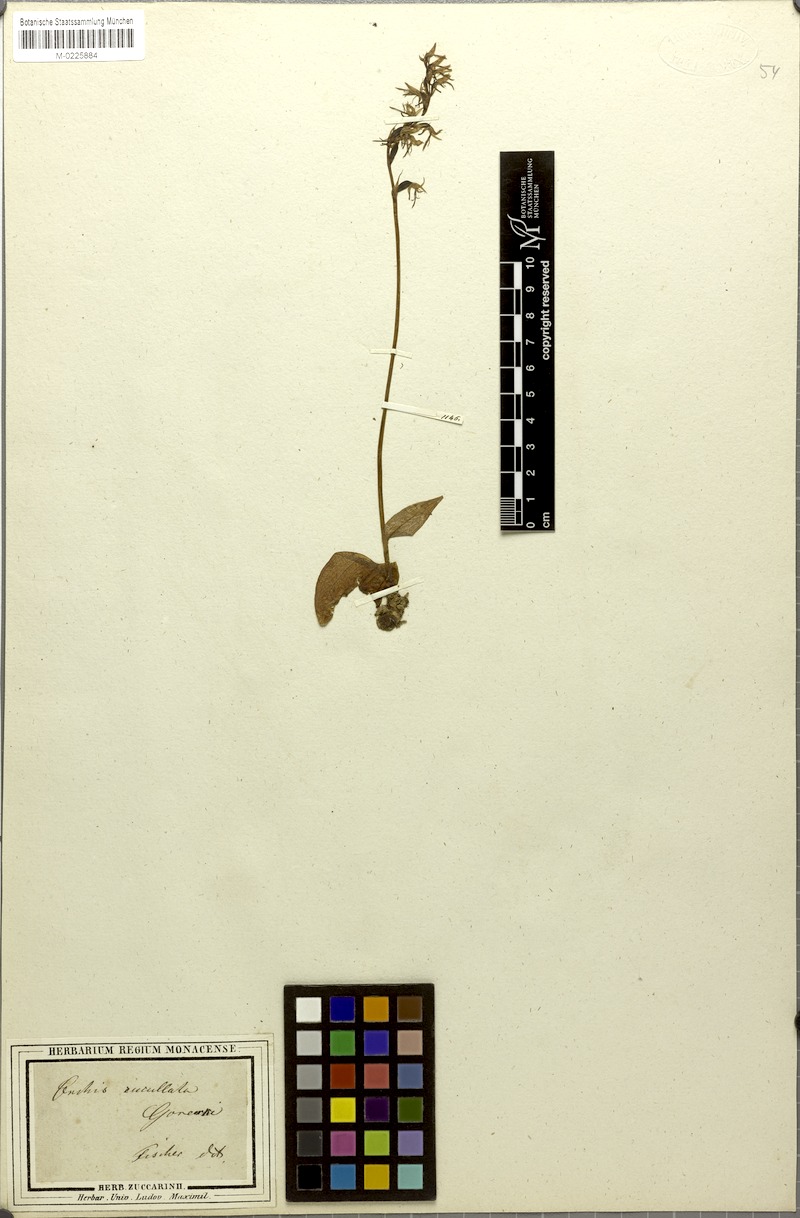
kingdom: Plantae
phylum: Tracheophyta
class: Liliopsida
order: Asparagales
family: Orchidaceae
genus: Hemipilia
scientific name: Hemipilia cucullata
